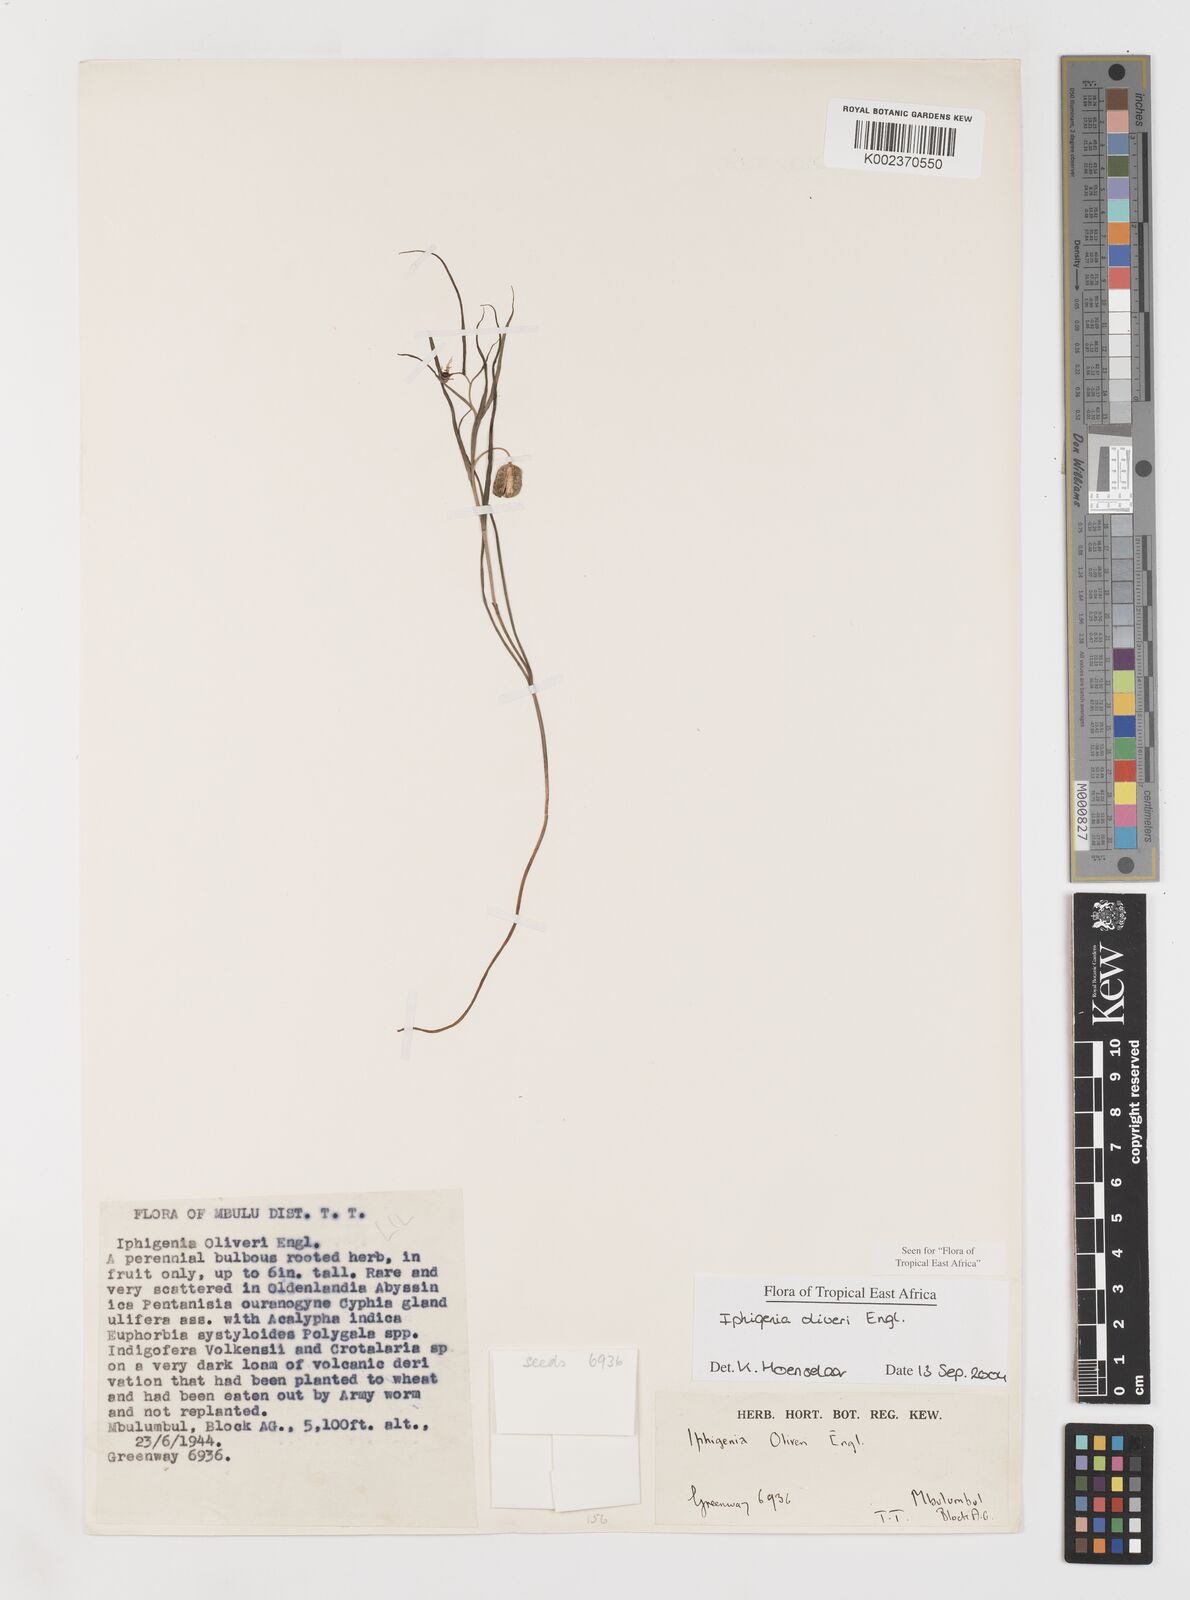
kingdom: Plantae
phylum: Tracheophyta
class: Liliopsida
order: Liliales
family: Colchicaceae
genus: Iphigenia
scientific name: Iphigenia oliveri
